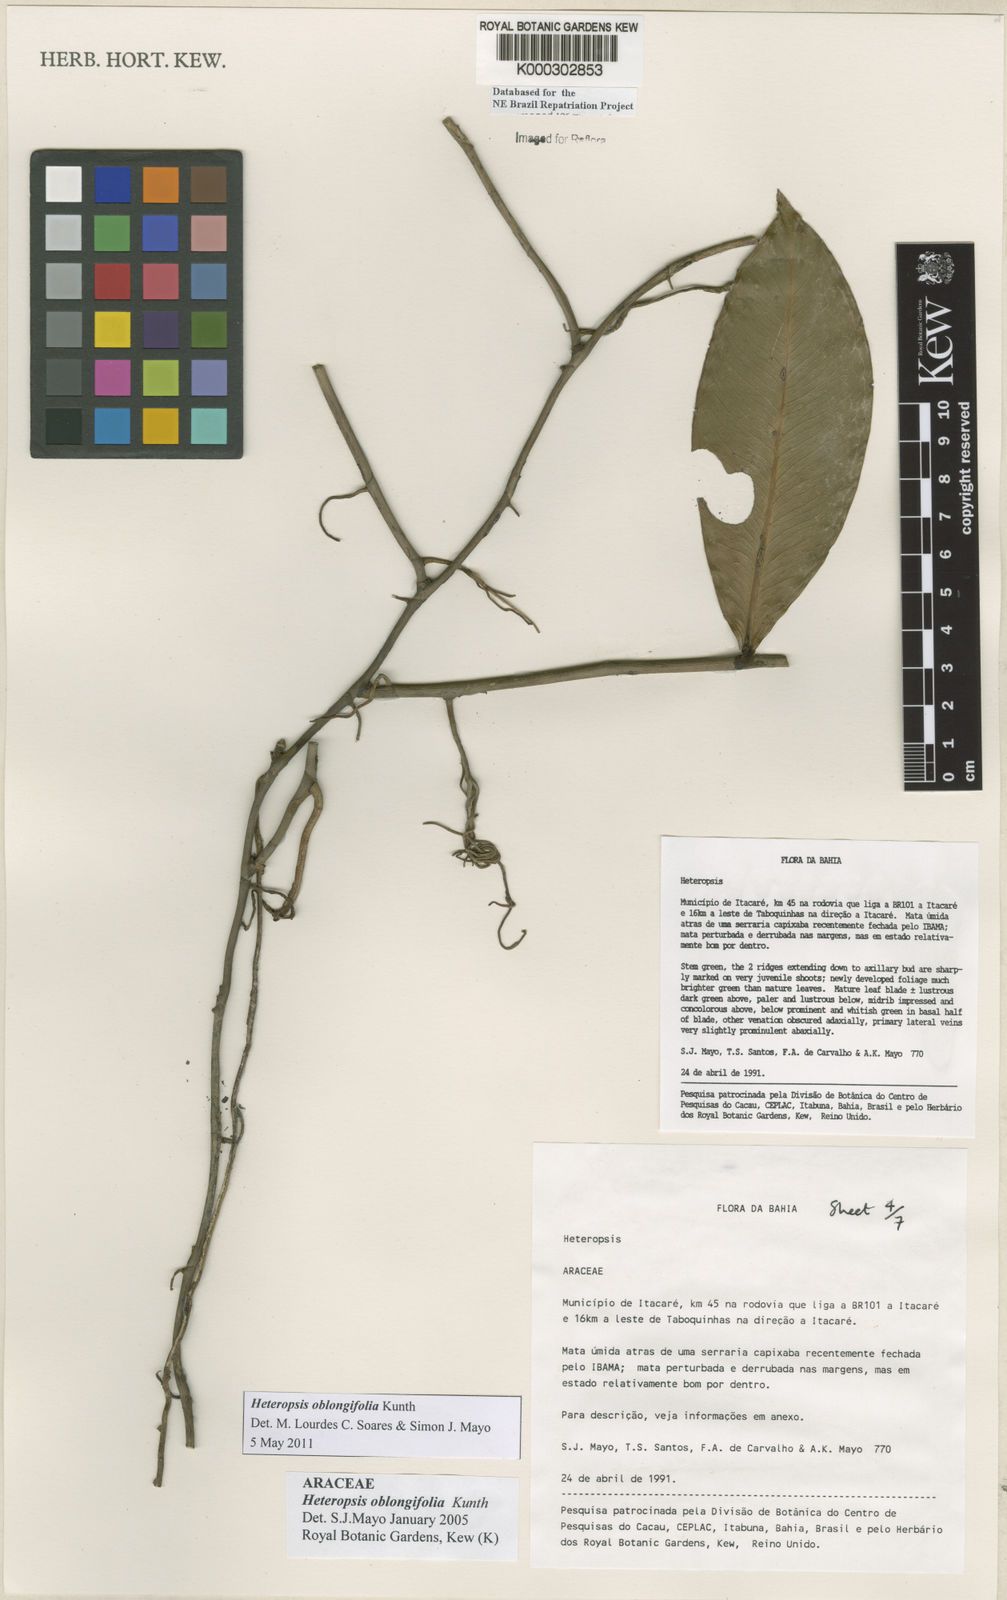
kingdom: Plantae
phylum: Tracheophyta
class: Liliopsida
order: Alismatales
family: Araceae
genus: Heteropsis
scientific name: Heteropsis oblongifolia
